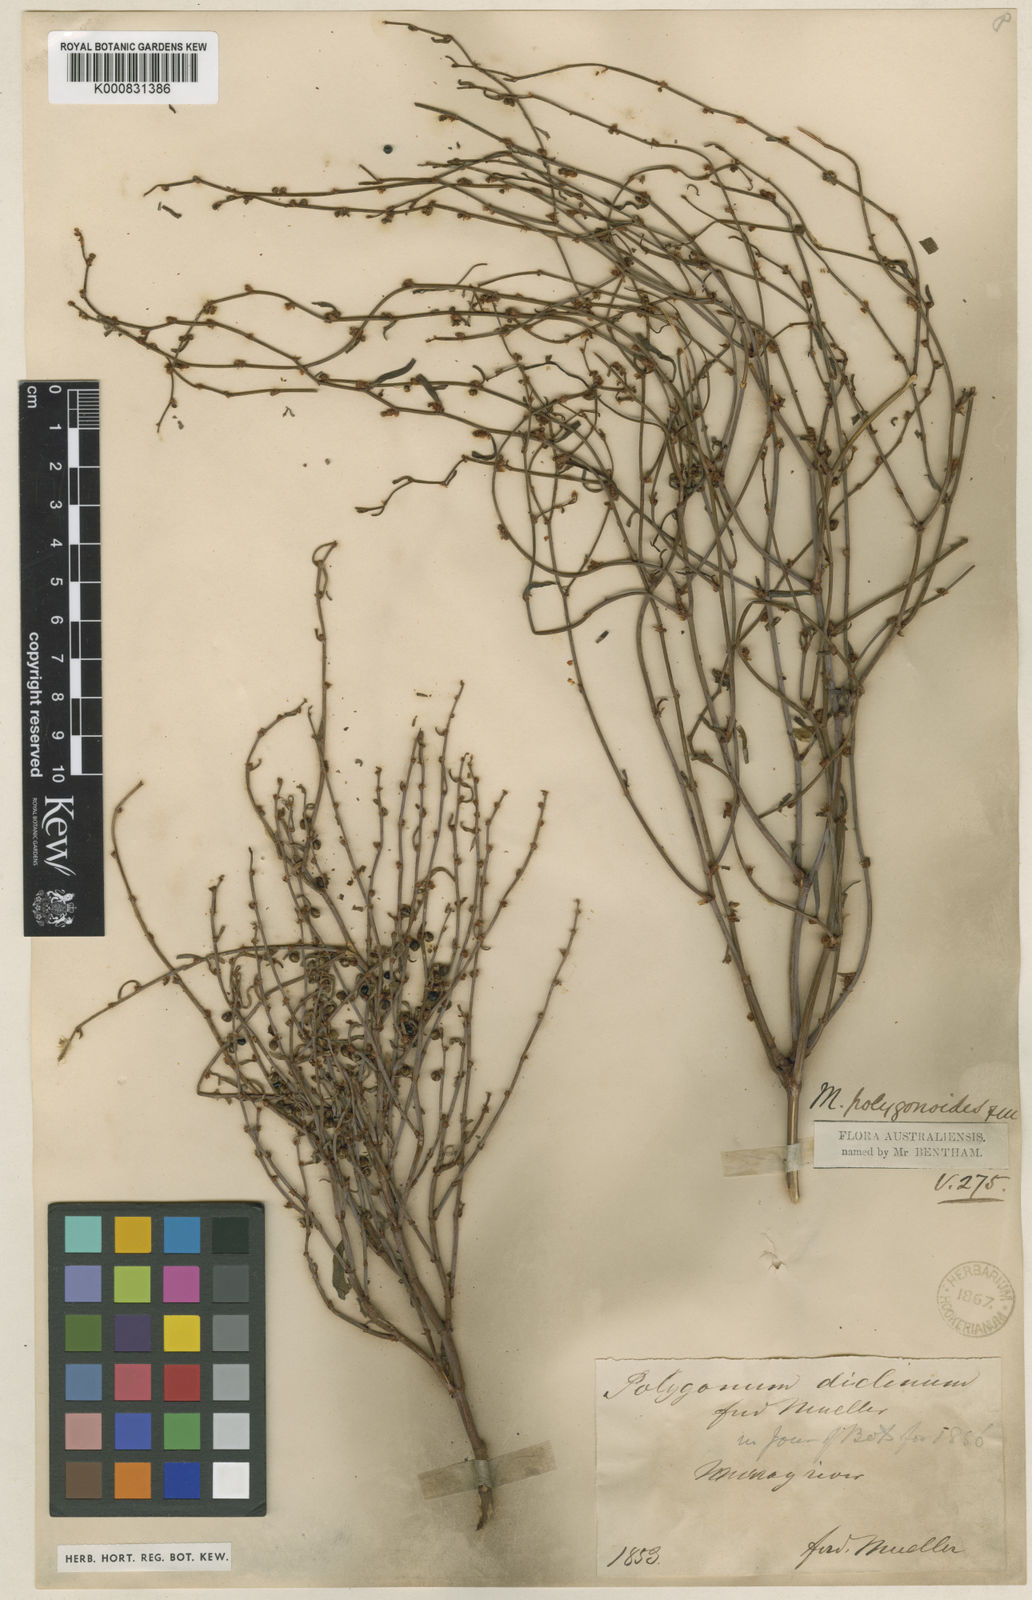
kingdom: Plantae
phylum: Tracheophyta
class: Magnoliopsida
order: Caryophyllales
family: Polygonaceae
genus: Muehlenbeckia
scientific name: Muehlenbeckia diclina
